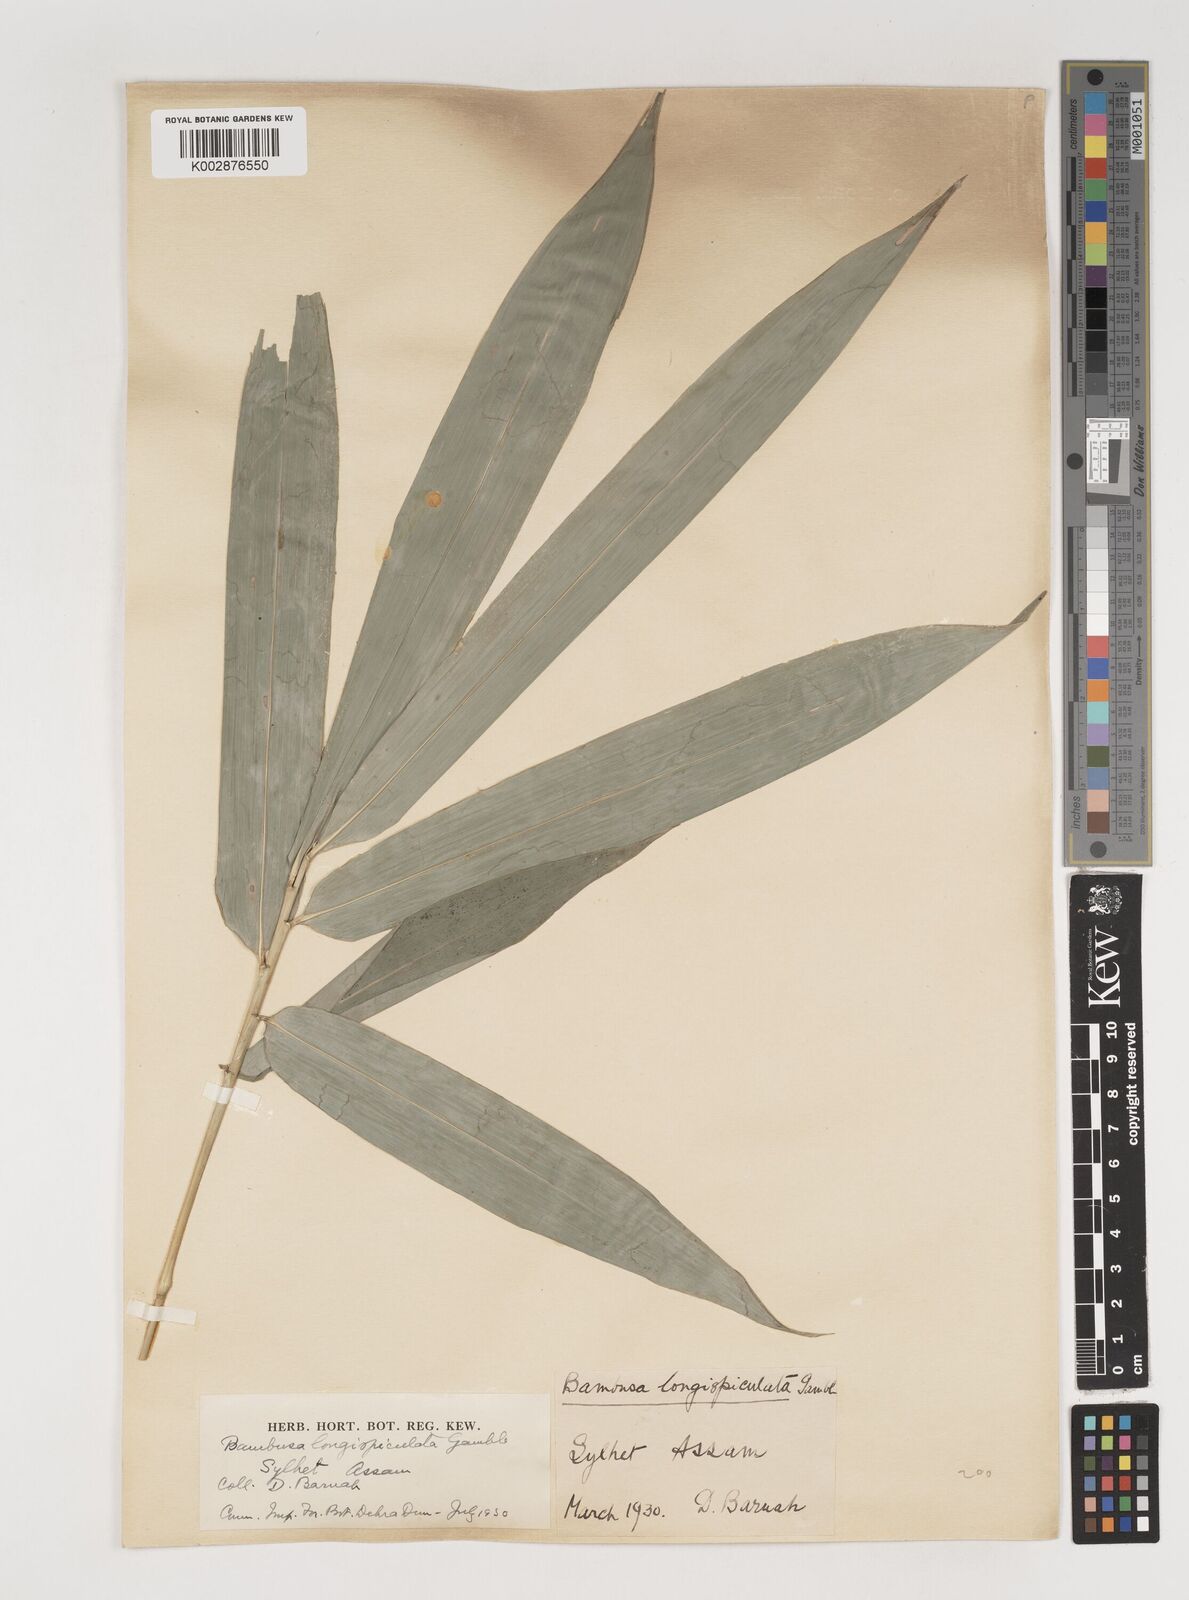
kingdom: Plantae
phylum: Tracheophyta
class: Liliopsida
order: Poales
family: Poaceae
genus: Bambusa
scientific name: Bambusa longispiculata
